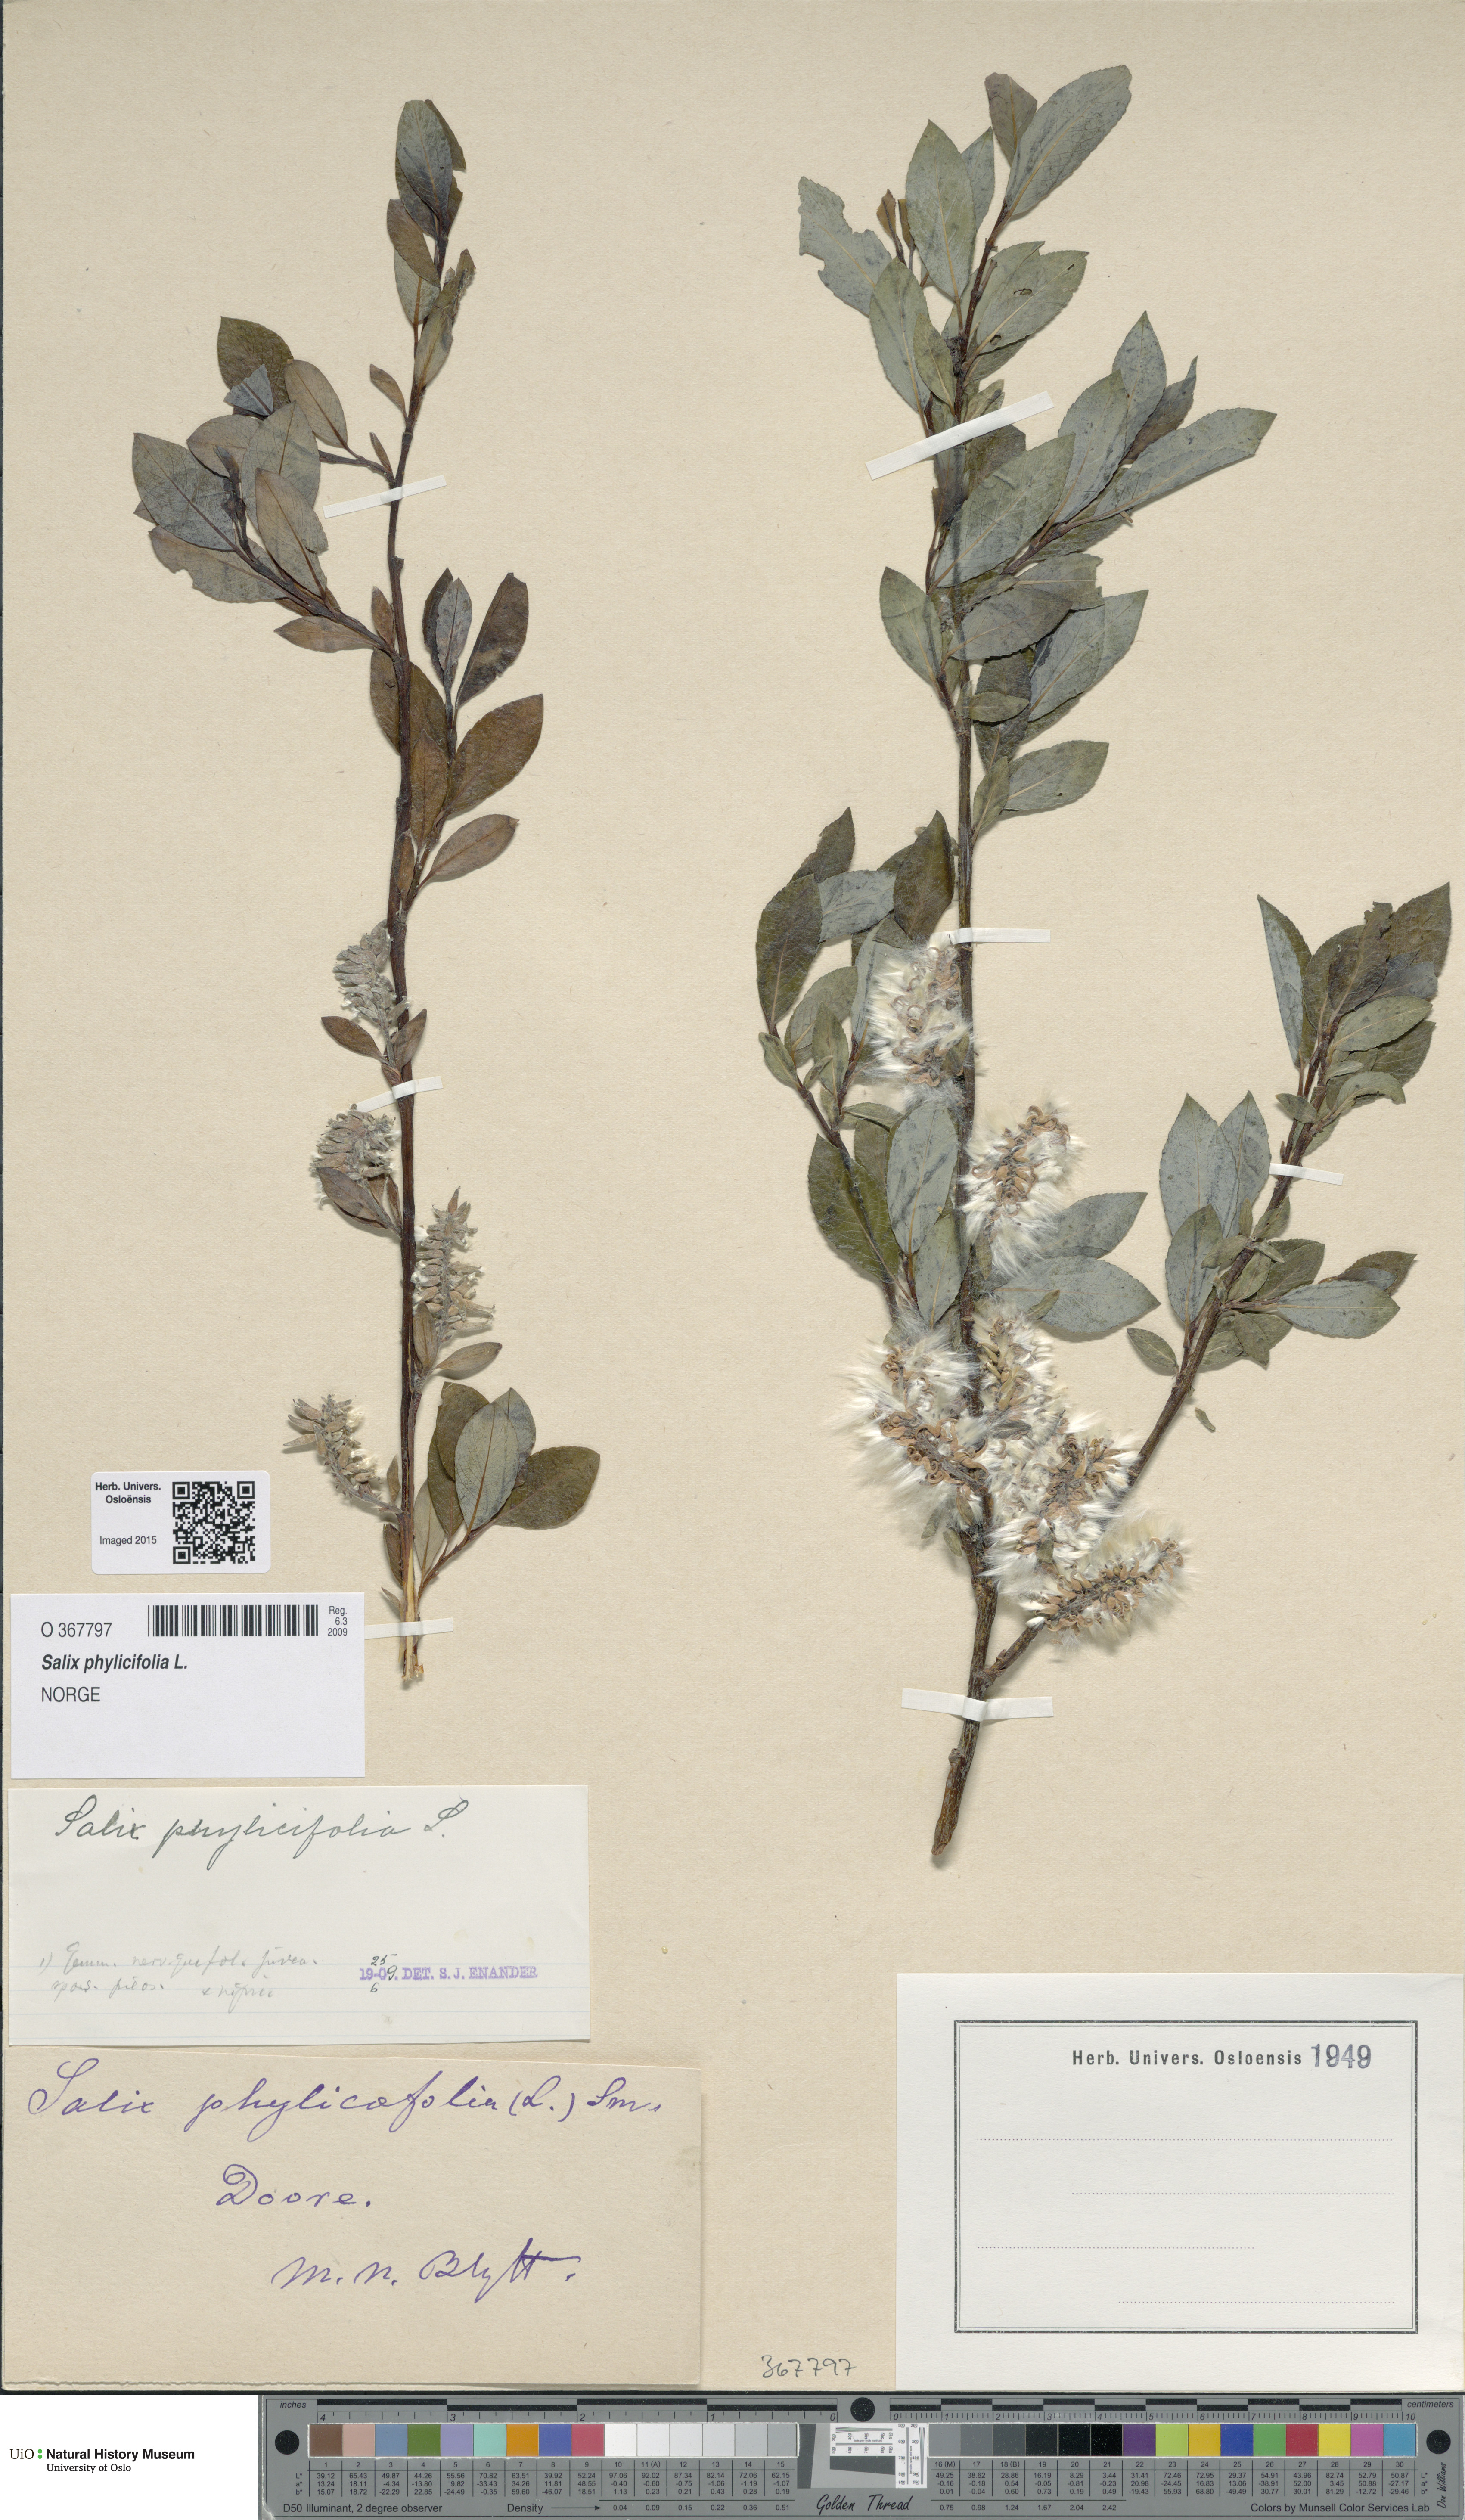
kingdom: Plantae
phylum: Tracheophyta
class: Magnoliopsida
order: Malpighiales
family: Salicaceae
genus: Salix
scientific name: Salix phylicifolia
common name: Tea-leaved willow
